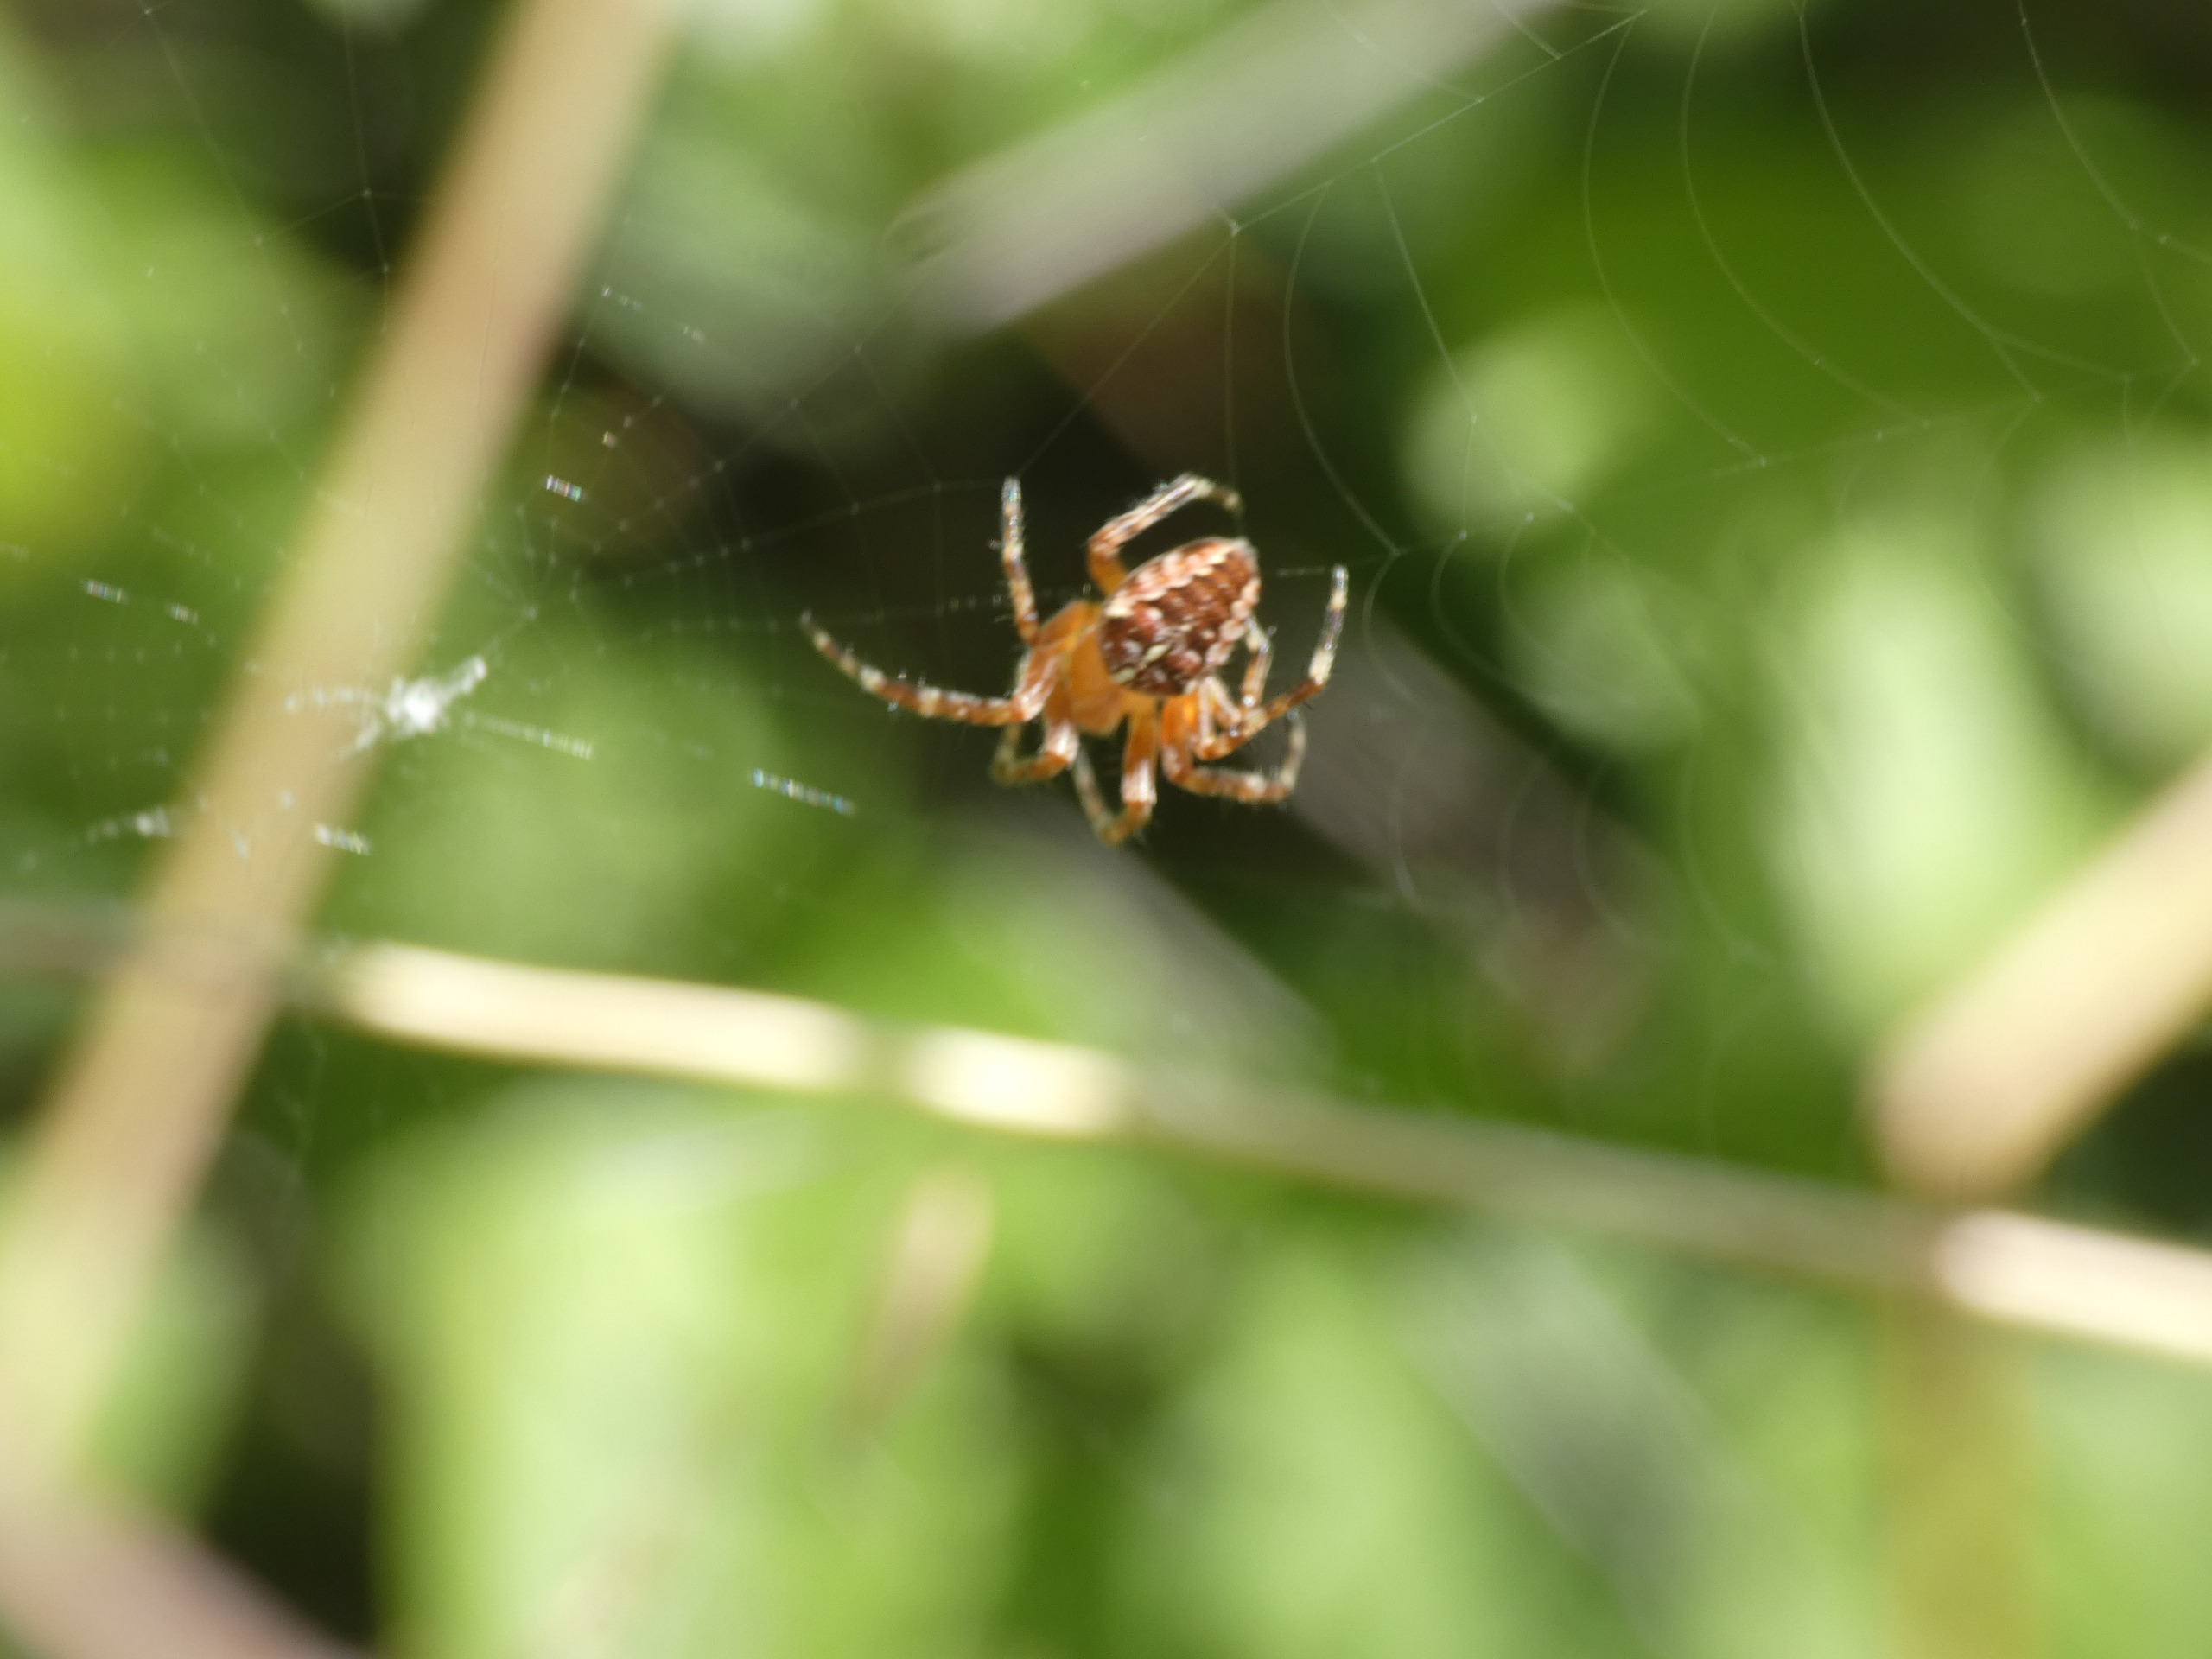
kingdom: Animalia
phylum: Arthropoda
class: Arachnida
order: Araneae
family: Araneidae
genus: Araneus
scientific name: Araneus diadematus
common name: Korsedderkop
